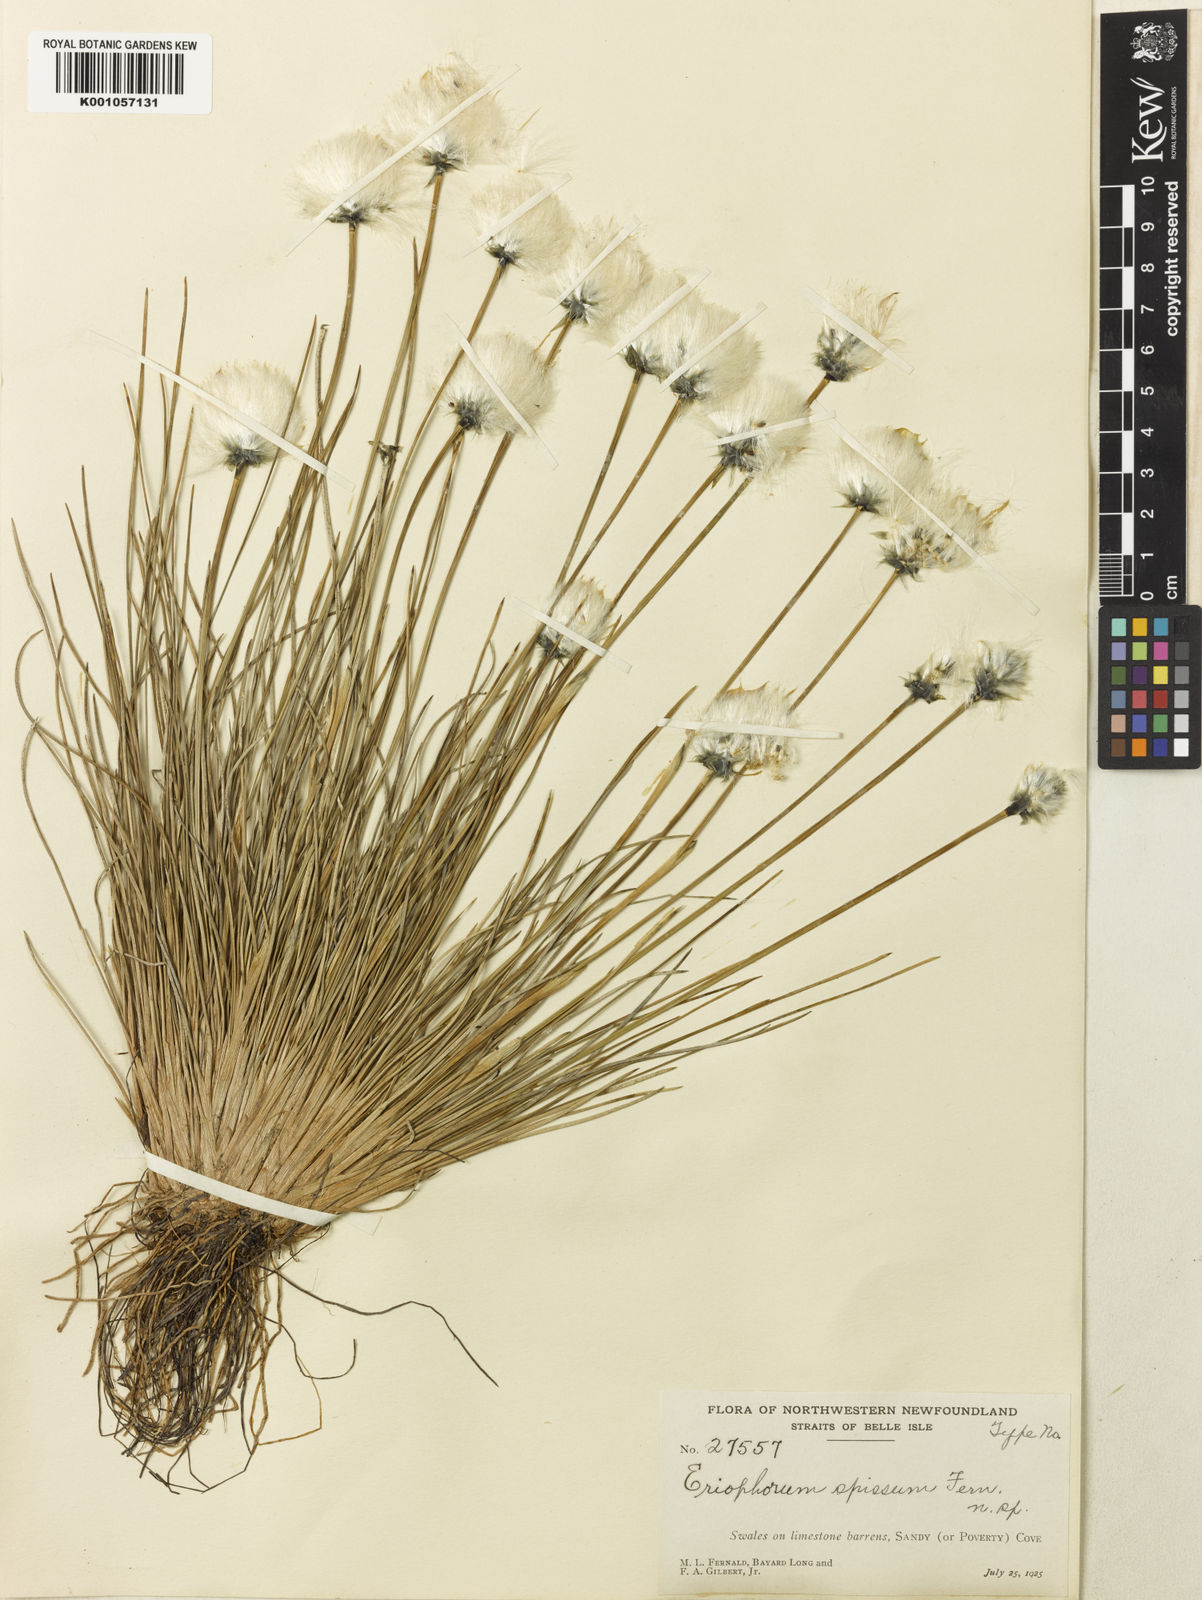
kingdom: Plantae
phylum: Tracheophyta
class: Liliopsida
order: Poales
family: Cyperaceae
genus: Eriophorum
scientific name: Eriophorum vaginatum
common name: Hare's-tail cottongrass
